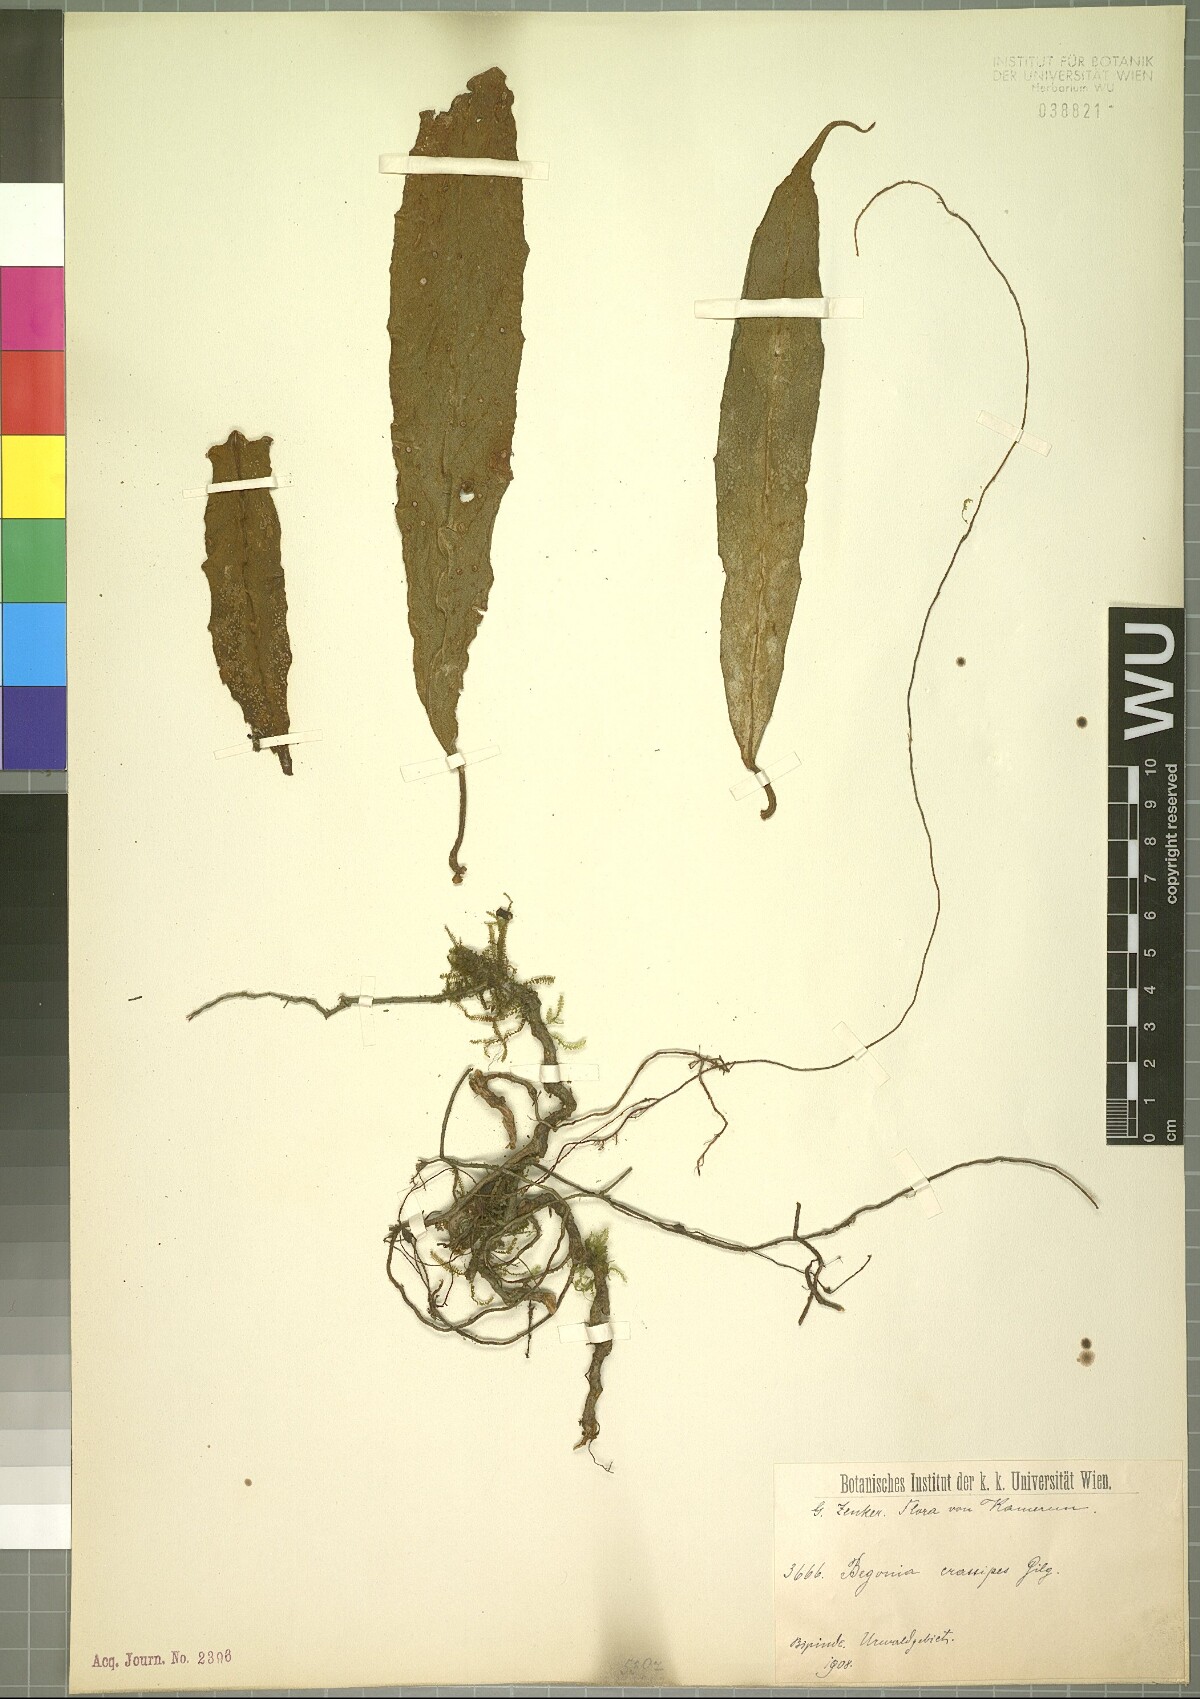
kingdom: Plantae
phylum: Tracheophyta
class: Magnoliopsida
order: Cucurbitales
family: Begoniaceae
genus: Begonia
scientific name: Begonia longipetiolata
